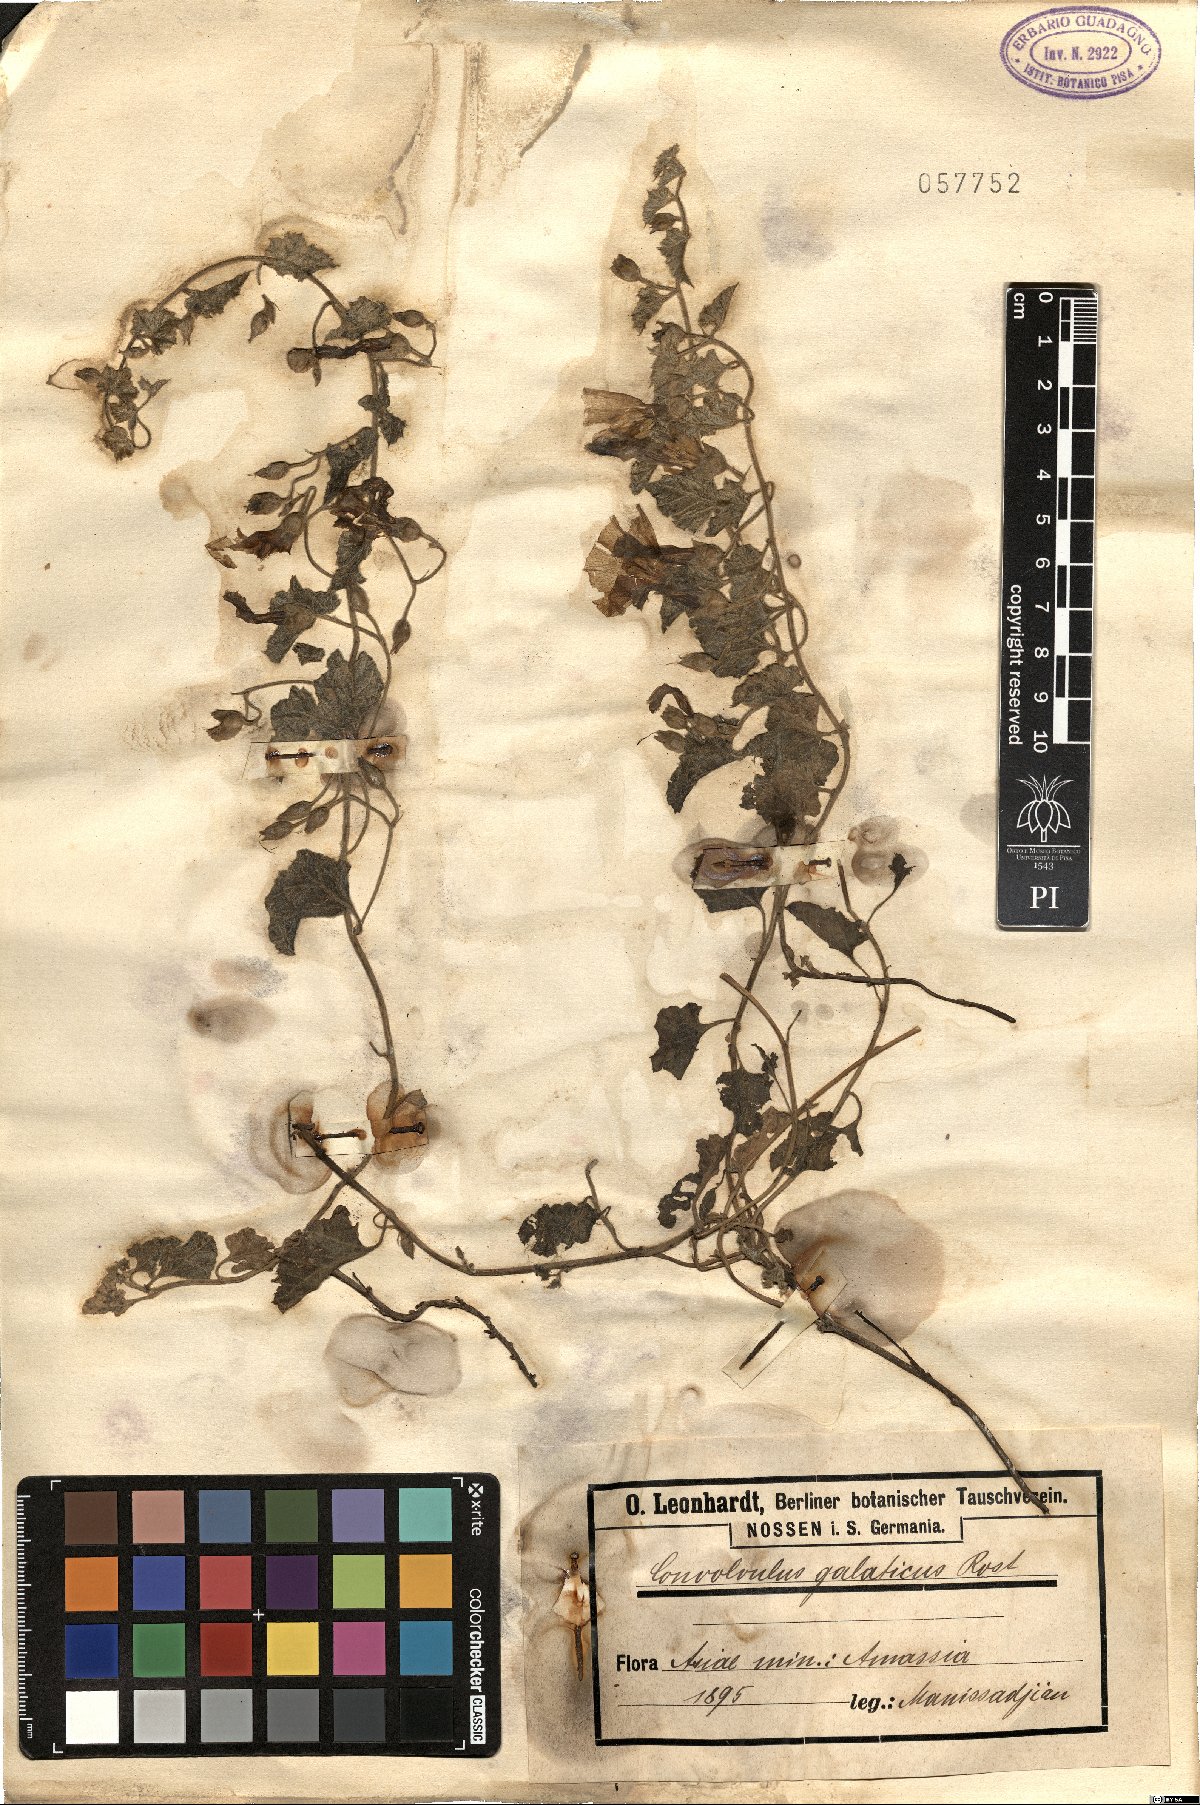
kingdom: Plantae
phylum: Tracheophyta
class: Magnoliopsida
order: Solanales
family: Convolvulaceae
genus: Convolvulus
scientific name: Convolvulus galaticus
